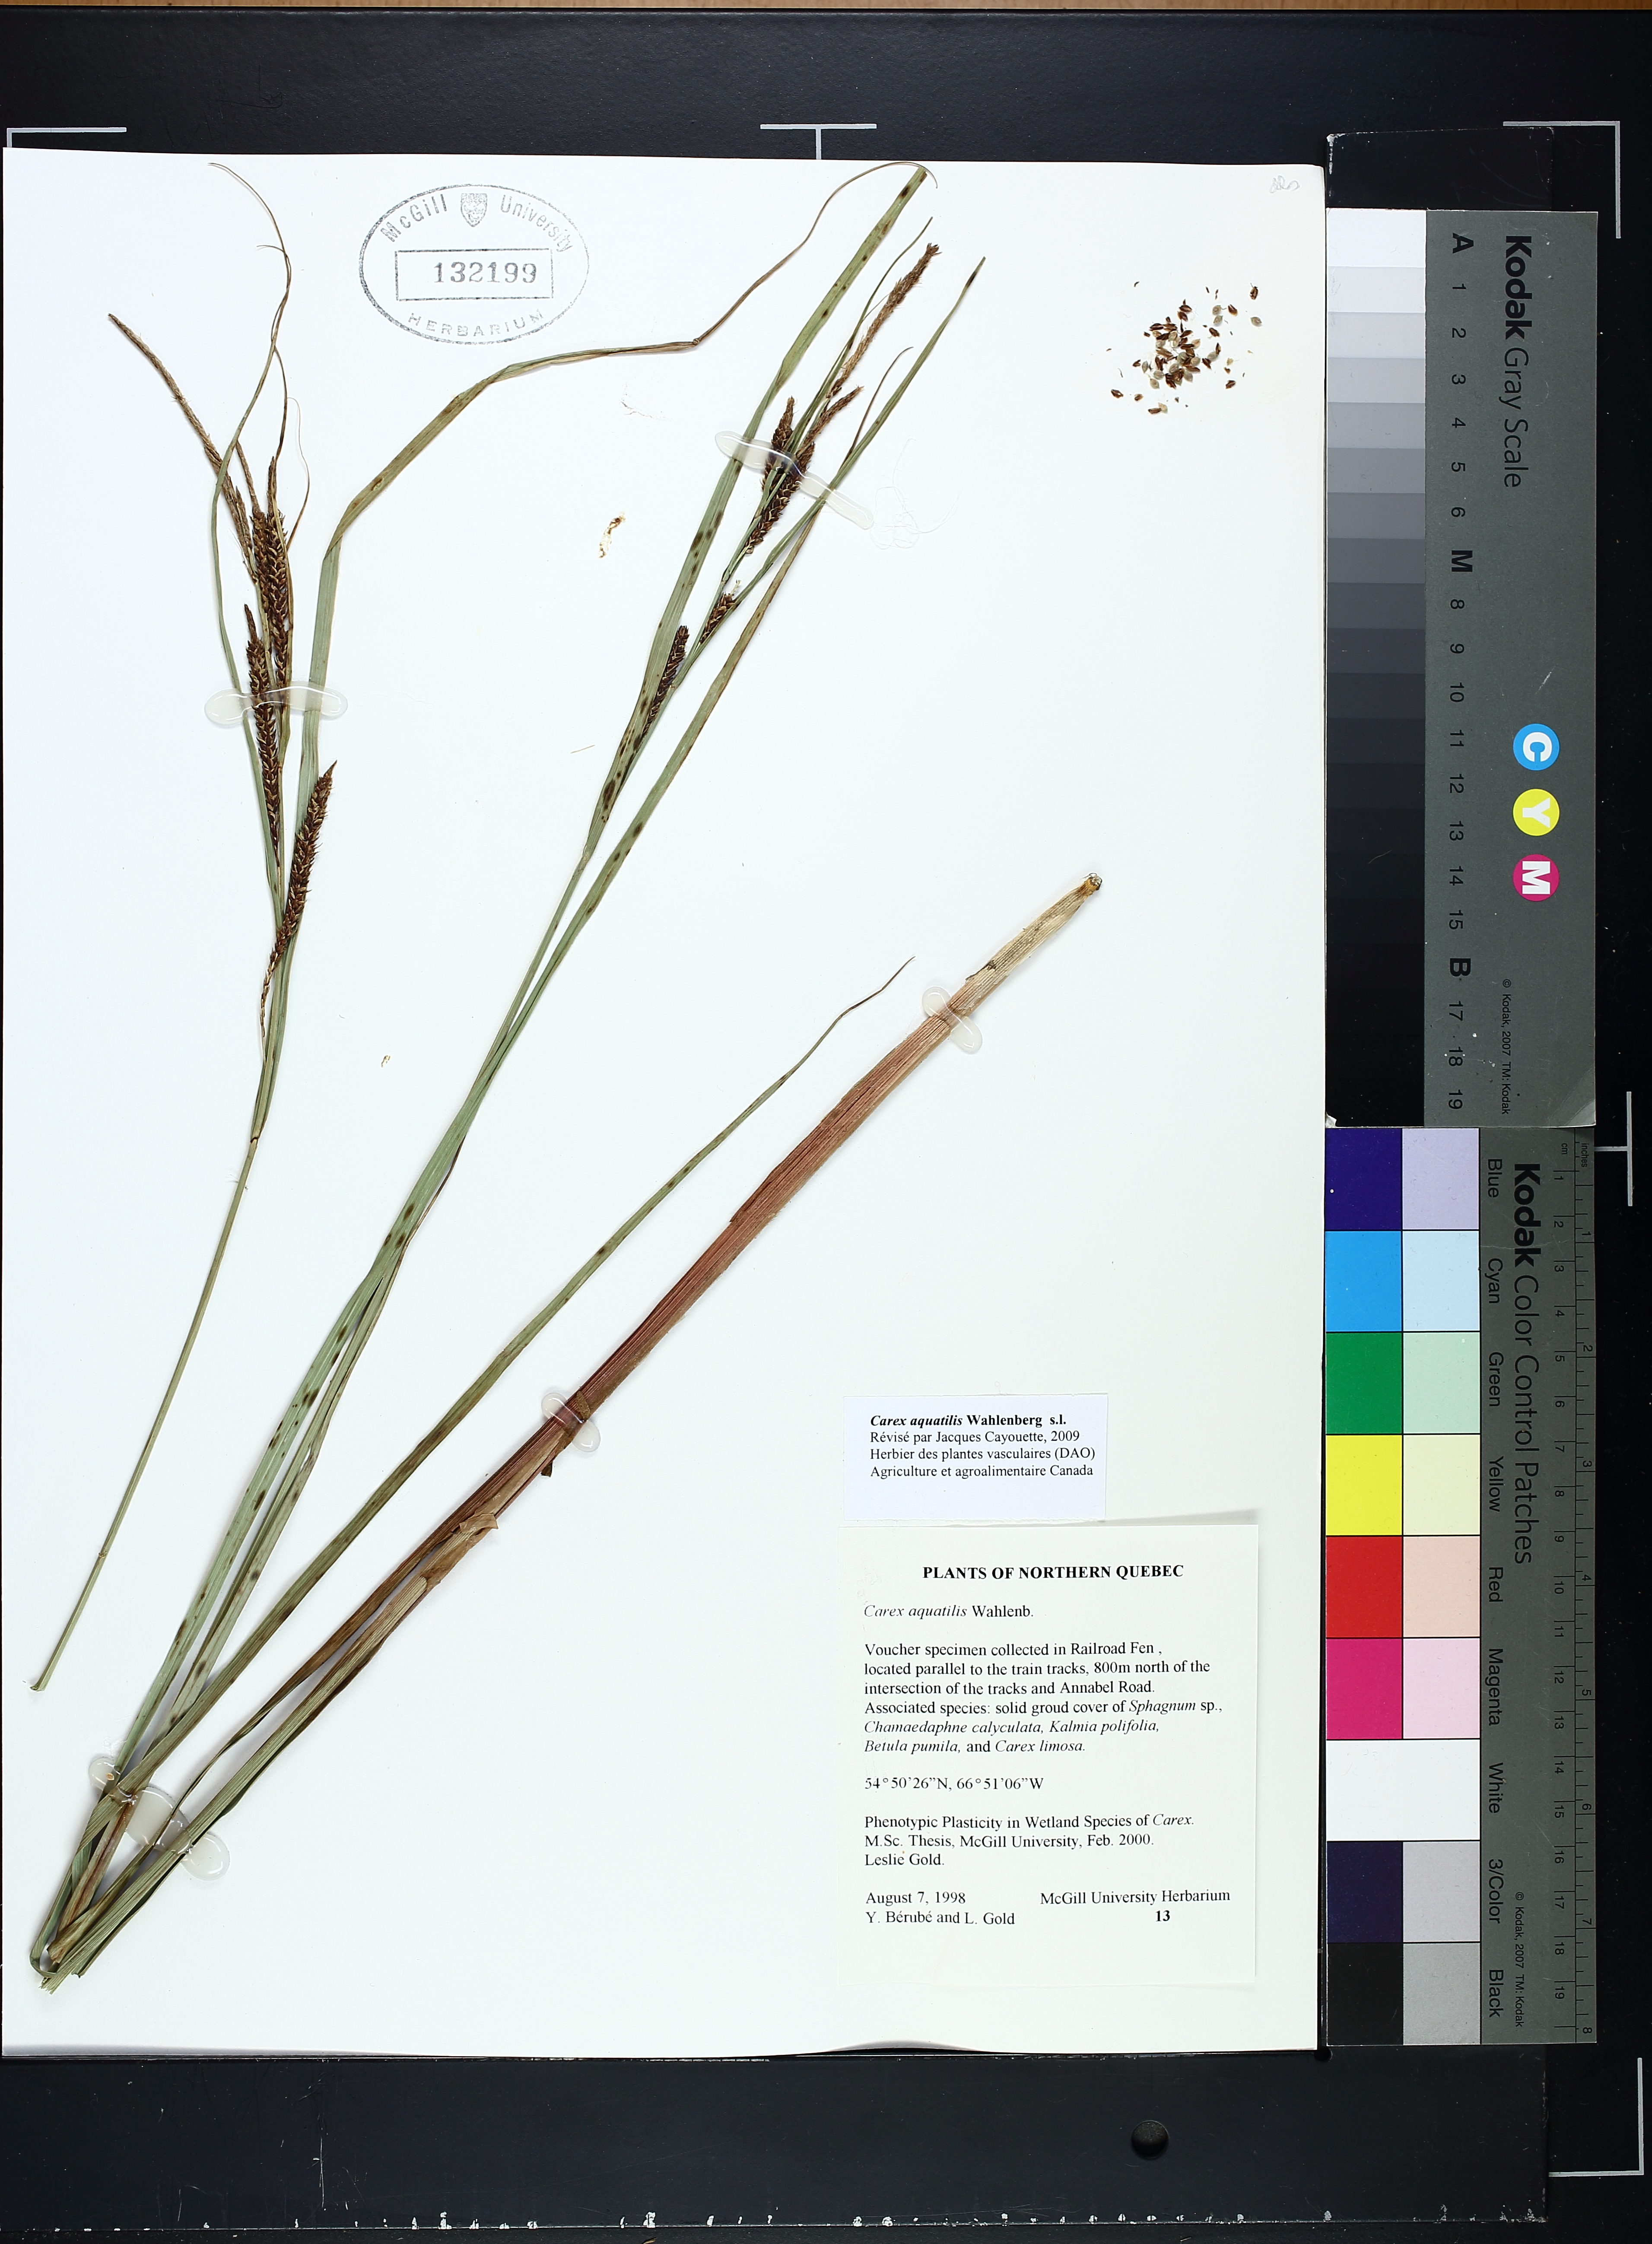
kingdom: Plantae
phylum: Tracheophyta
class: Liliopsida
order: Poales
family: Cyperaceae
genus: Carex
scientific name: Carex aquatilis
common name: Water sedge
